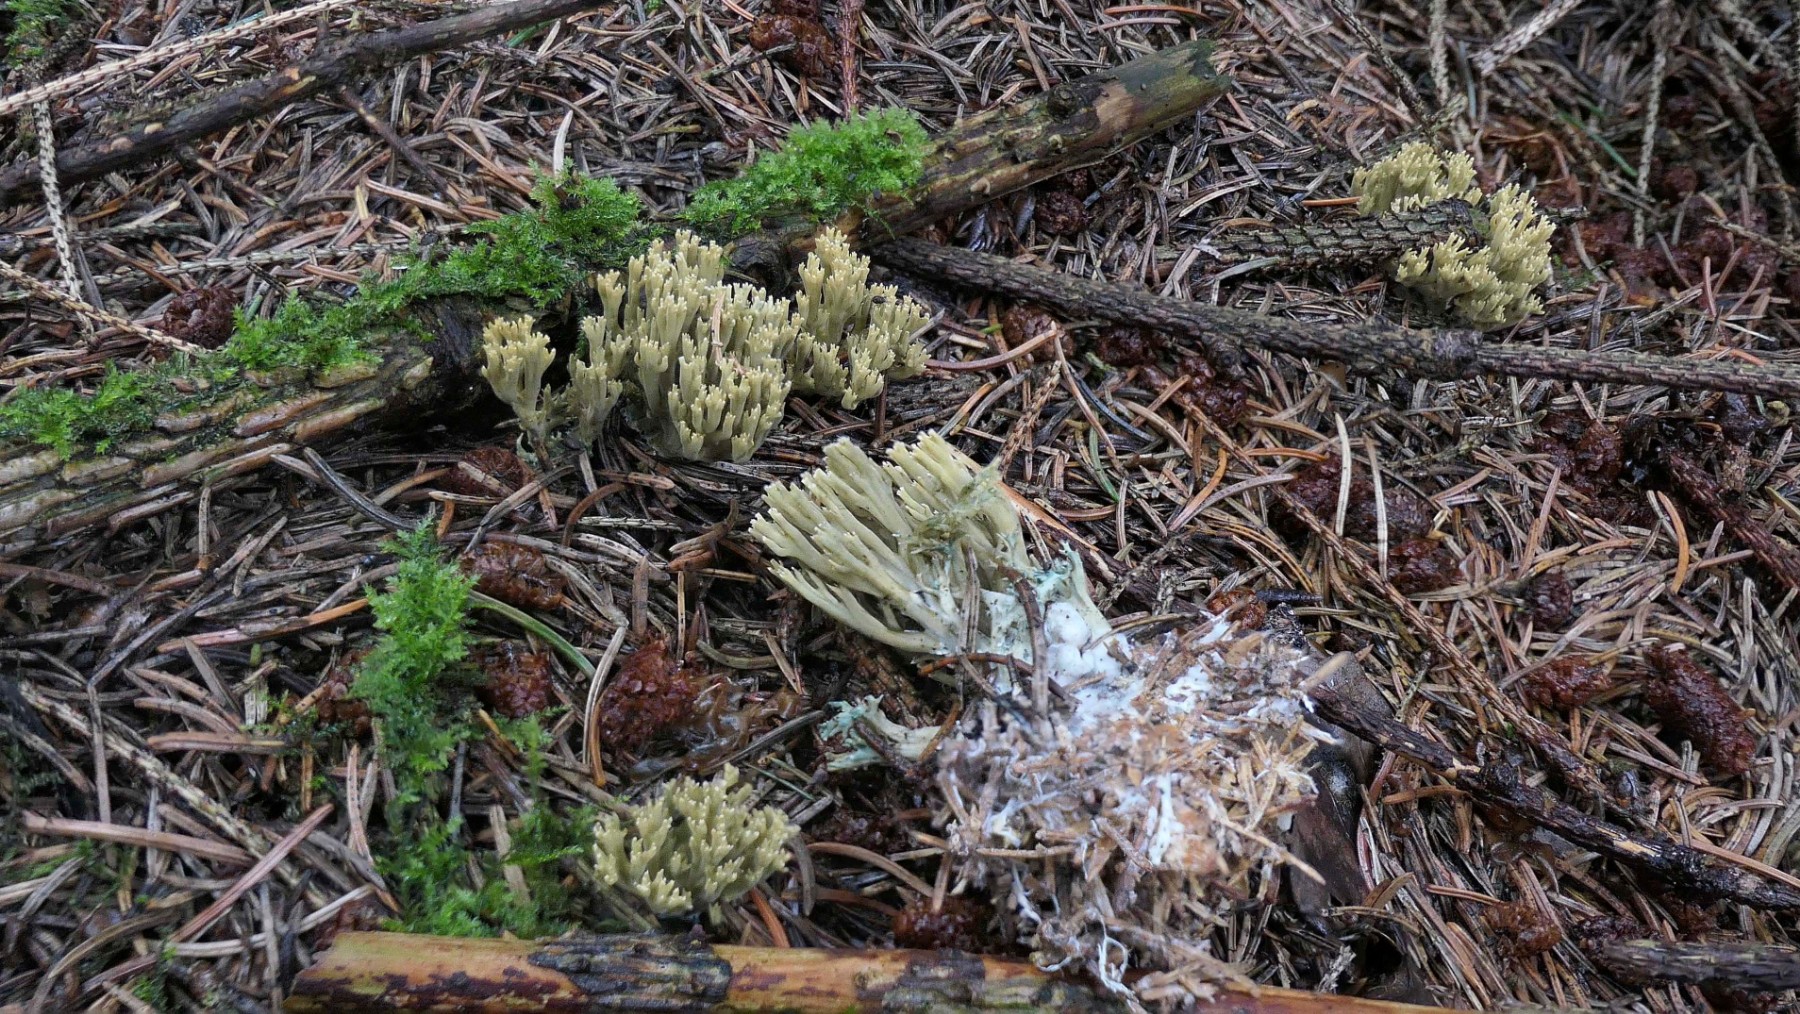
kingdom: Fungi
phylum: Basidiomycota
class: Agaricomycetes
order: Gomphales
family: Gomphaceae
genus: Phaeoclavulina
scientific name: Phaeoclavulina abietina
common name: gulgrøn koralsvamp
